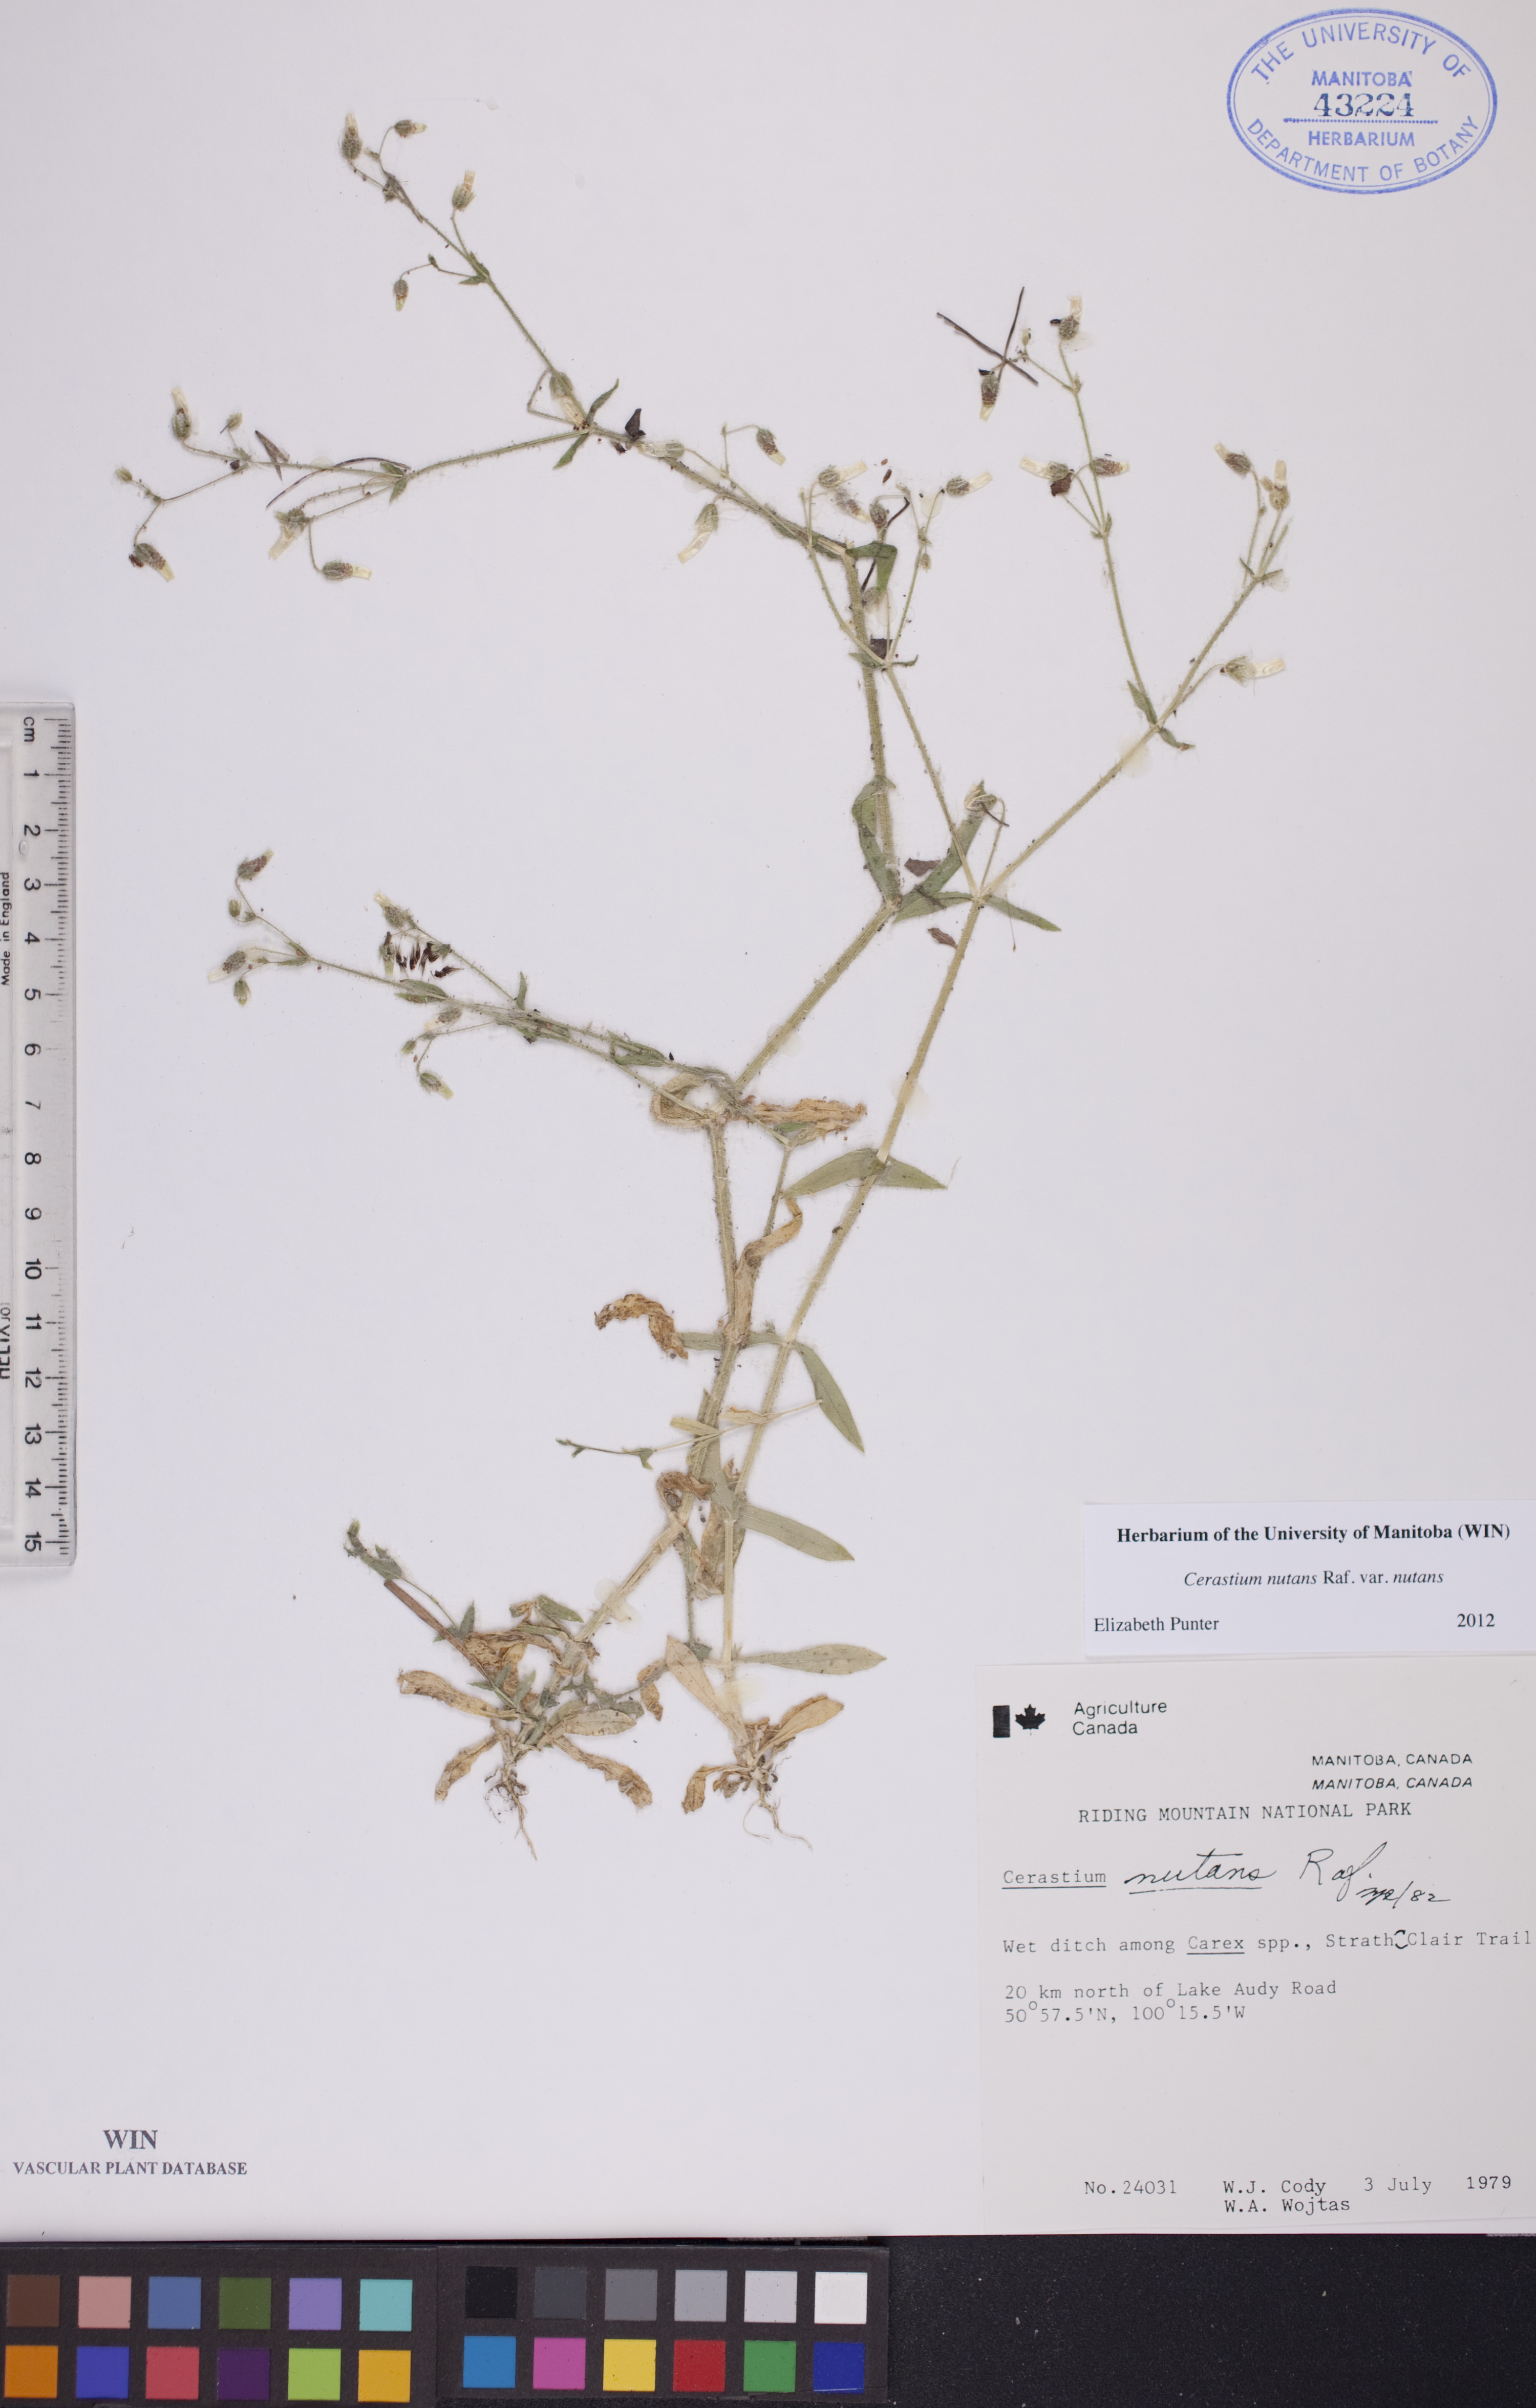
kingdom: Plantae
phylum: Tracheophyta
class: Magnoliopsida
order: Caryophyllales
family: Caryophyllaceae
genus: Cerastium
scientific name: Cerastium nutans
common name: Long-stalked chickweed
